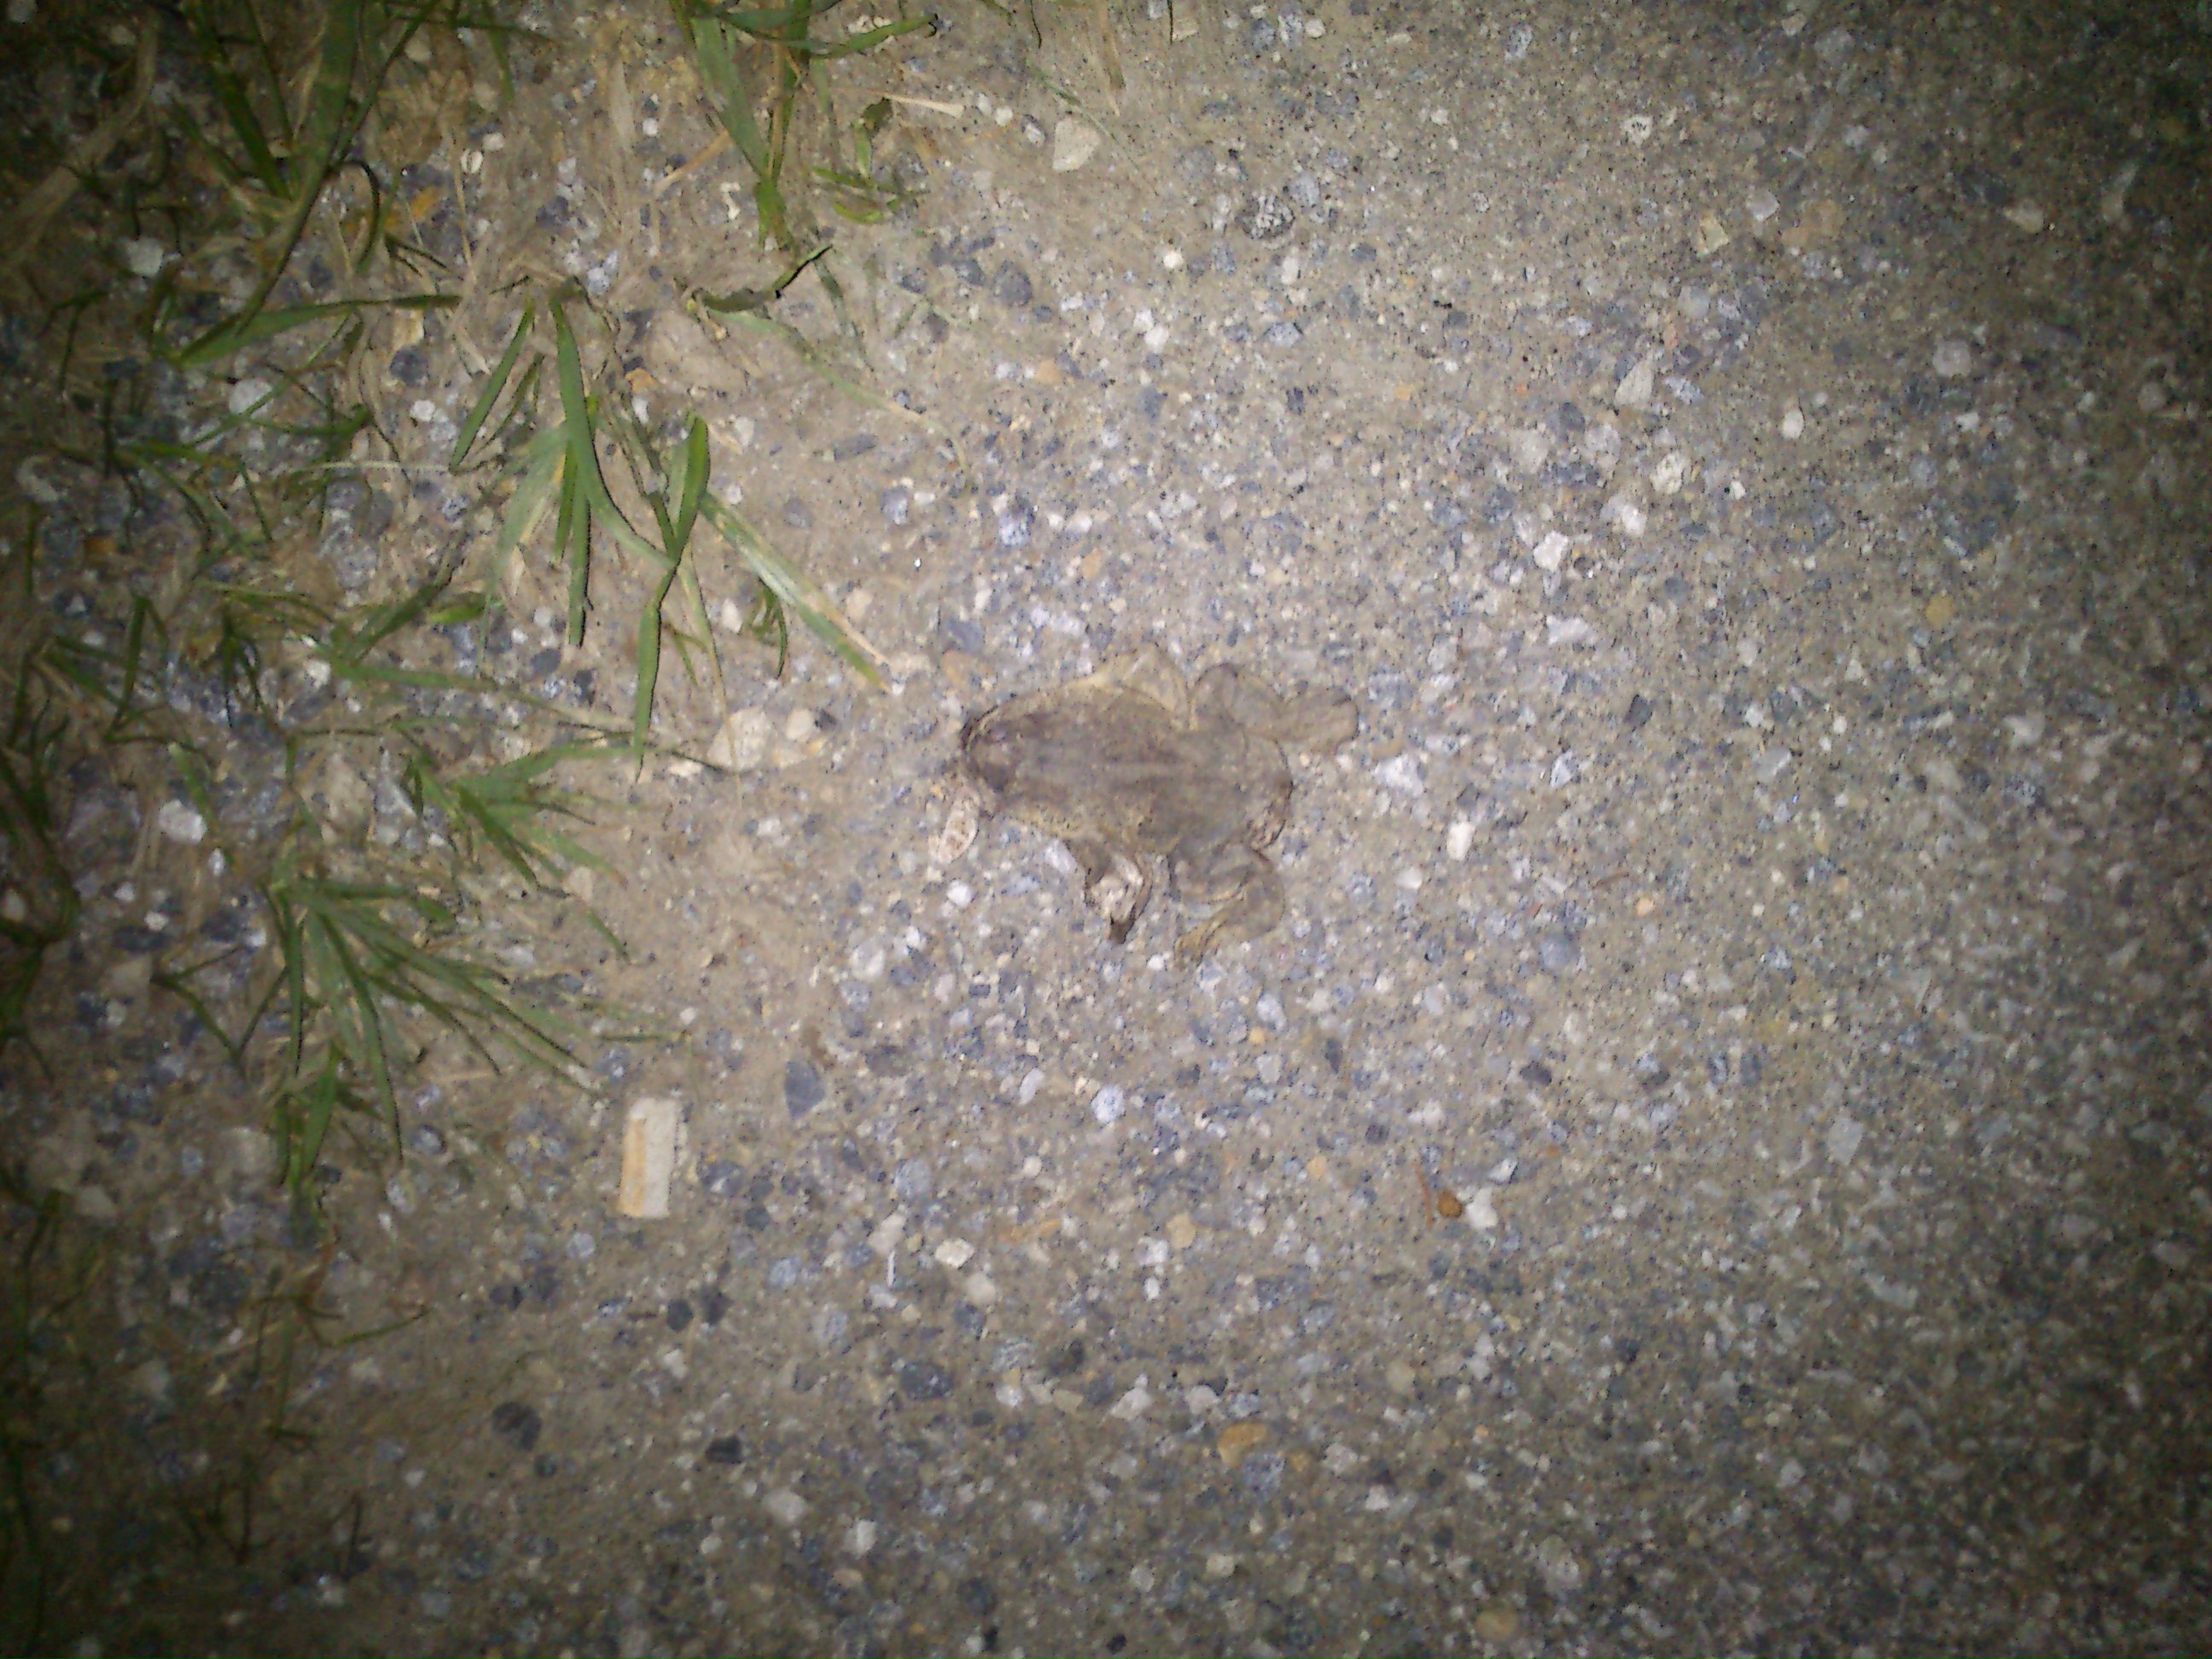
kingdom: Animalia
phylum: Chordata
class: Amphibia
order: Anura
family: Bufonidae
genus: Bufo
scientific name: Bufo bufo
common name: Common toad
